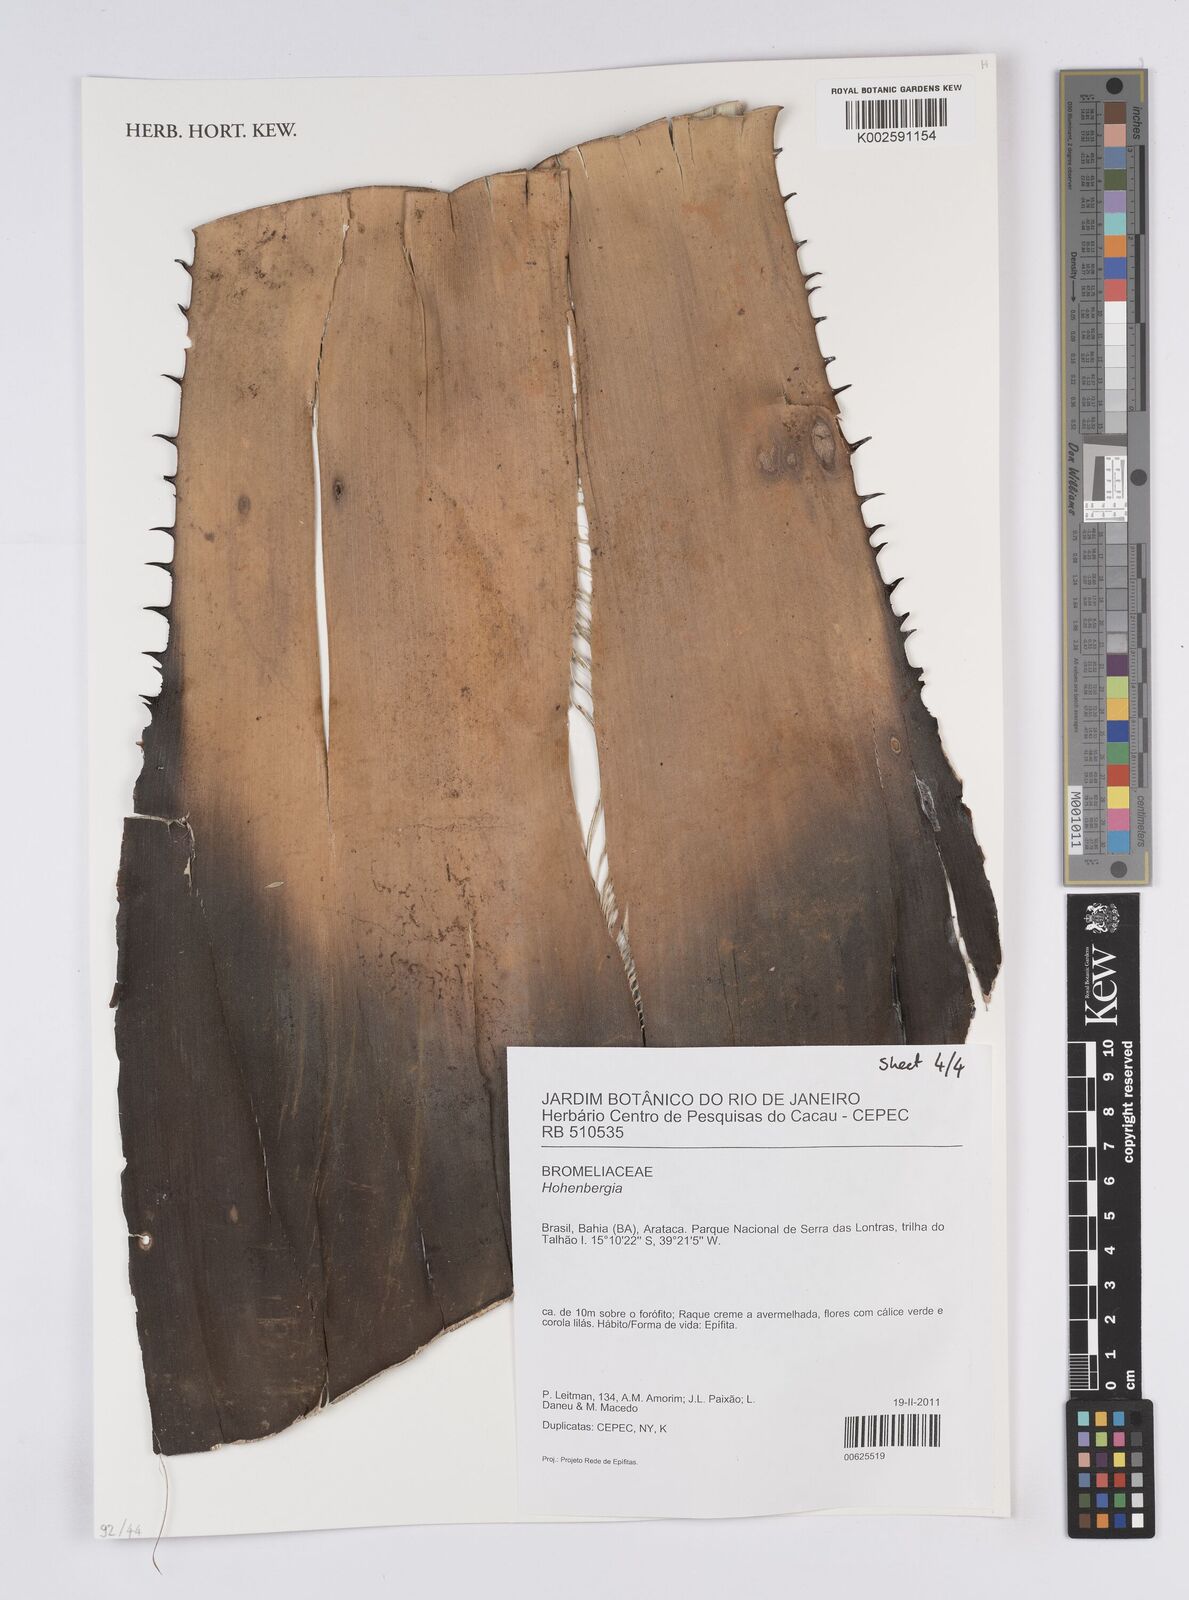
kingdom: Plantae
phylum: Tracheophyta
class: Liliopsida
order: Poales
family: Bromeliaceae
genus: Hohenbergia
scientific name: Hohenbergia
